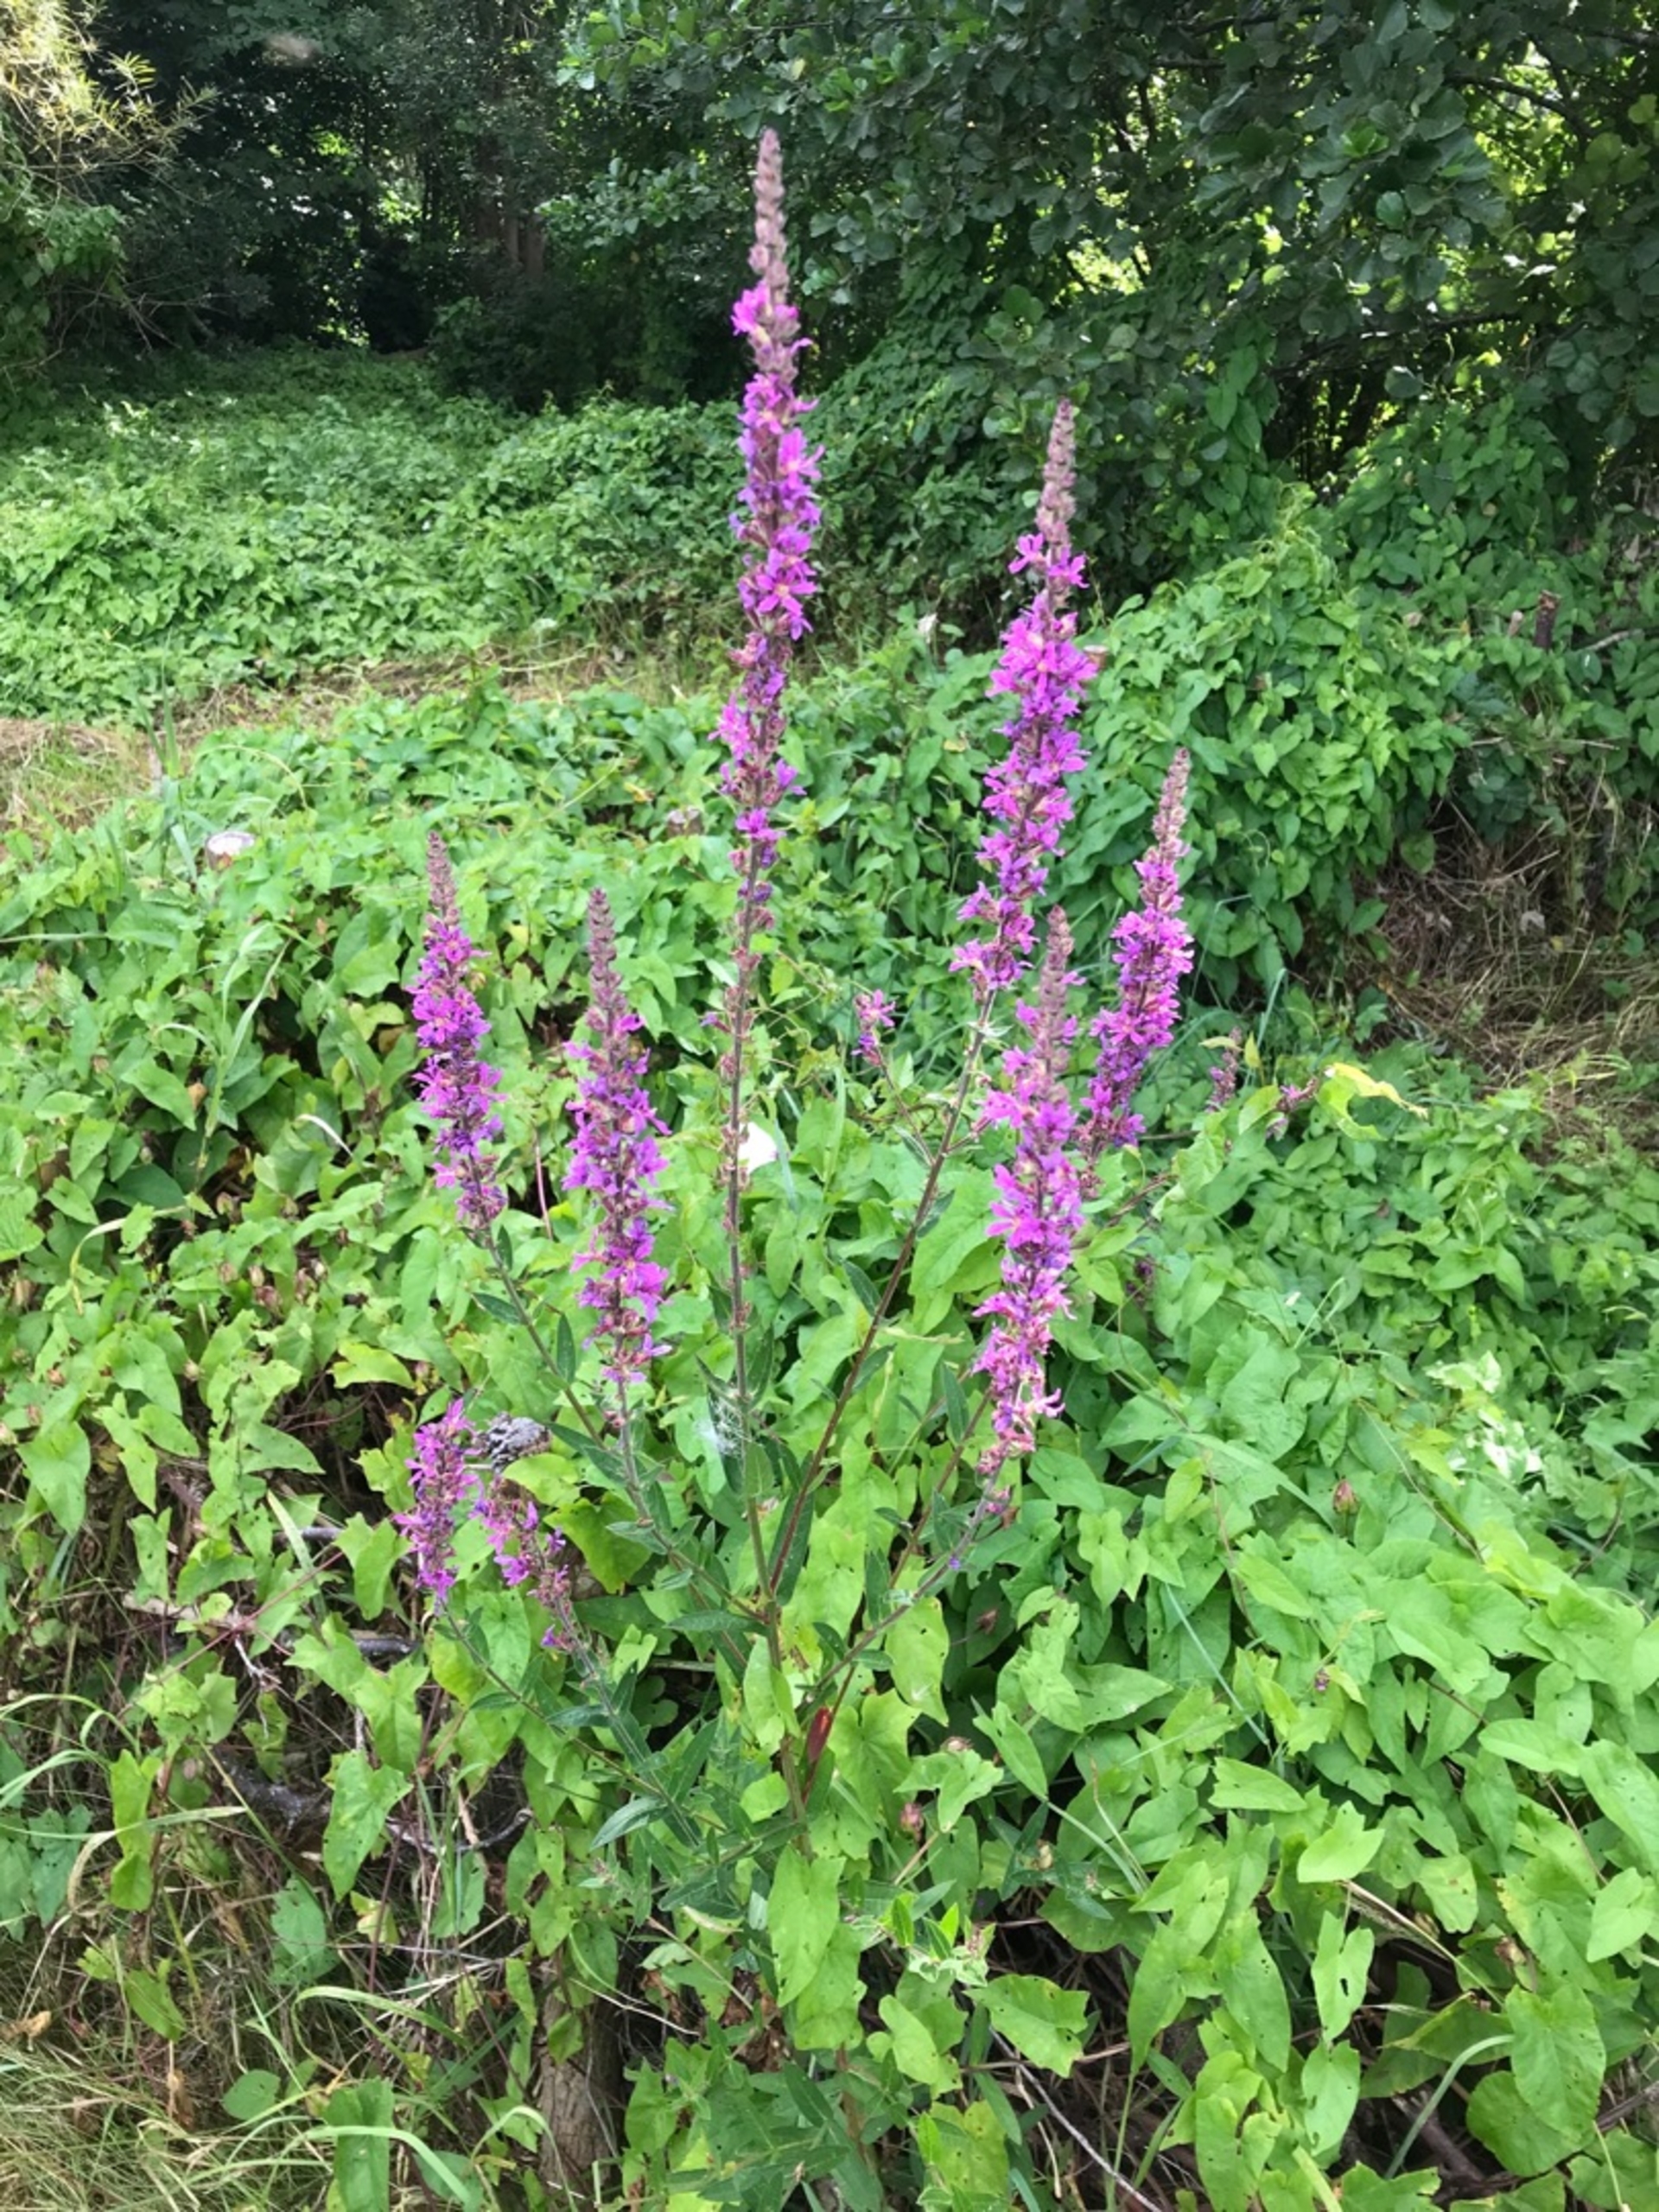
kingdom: Plantae
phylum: Tracheophyta
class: Magnoliopsida
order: Myrtales
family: Lythraceae
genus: Lythrum
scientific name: Lythrum salicaria
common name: Kattehale
